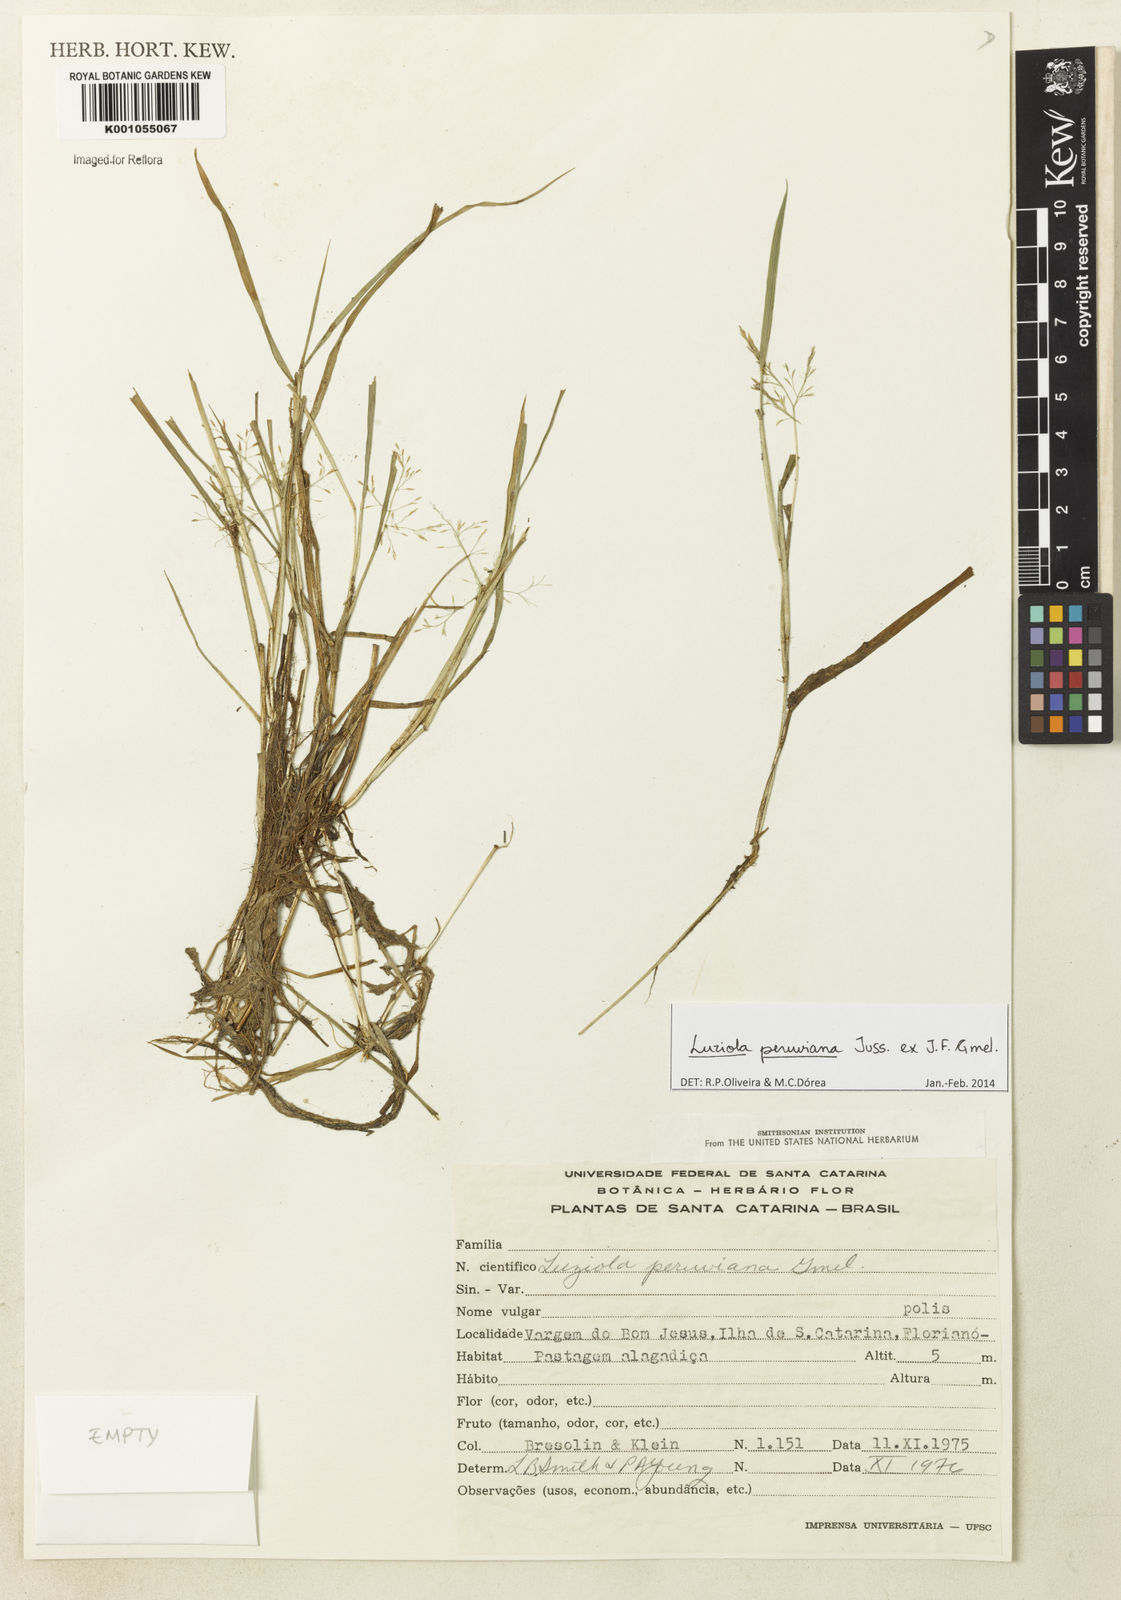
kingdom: Plantae
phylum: Tracheophyta
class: Liliopsida
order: Poales
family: Poaceae
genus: Luziola
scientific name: Luziola peruviana
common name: Peruvian watergrass
